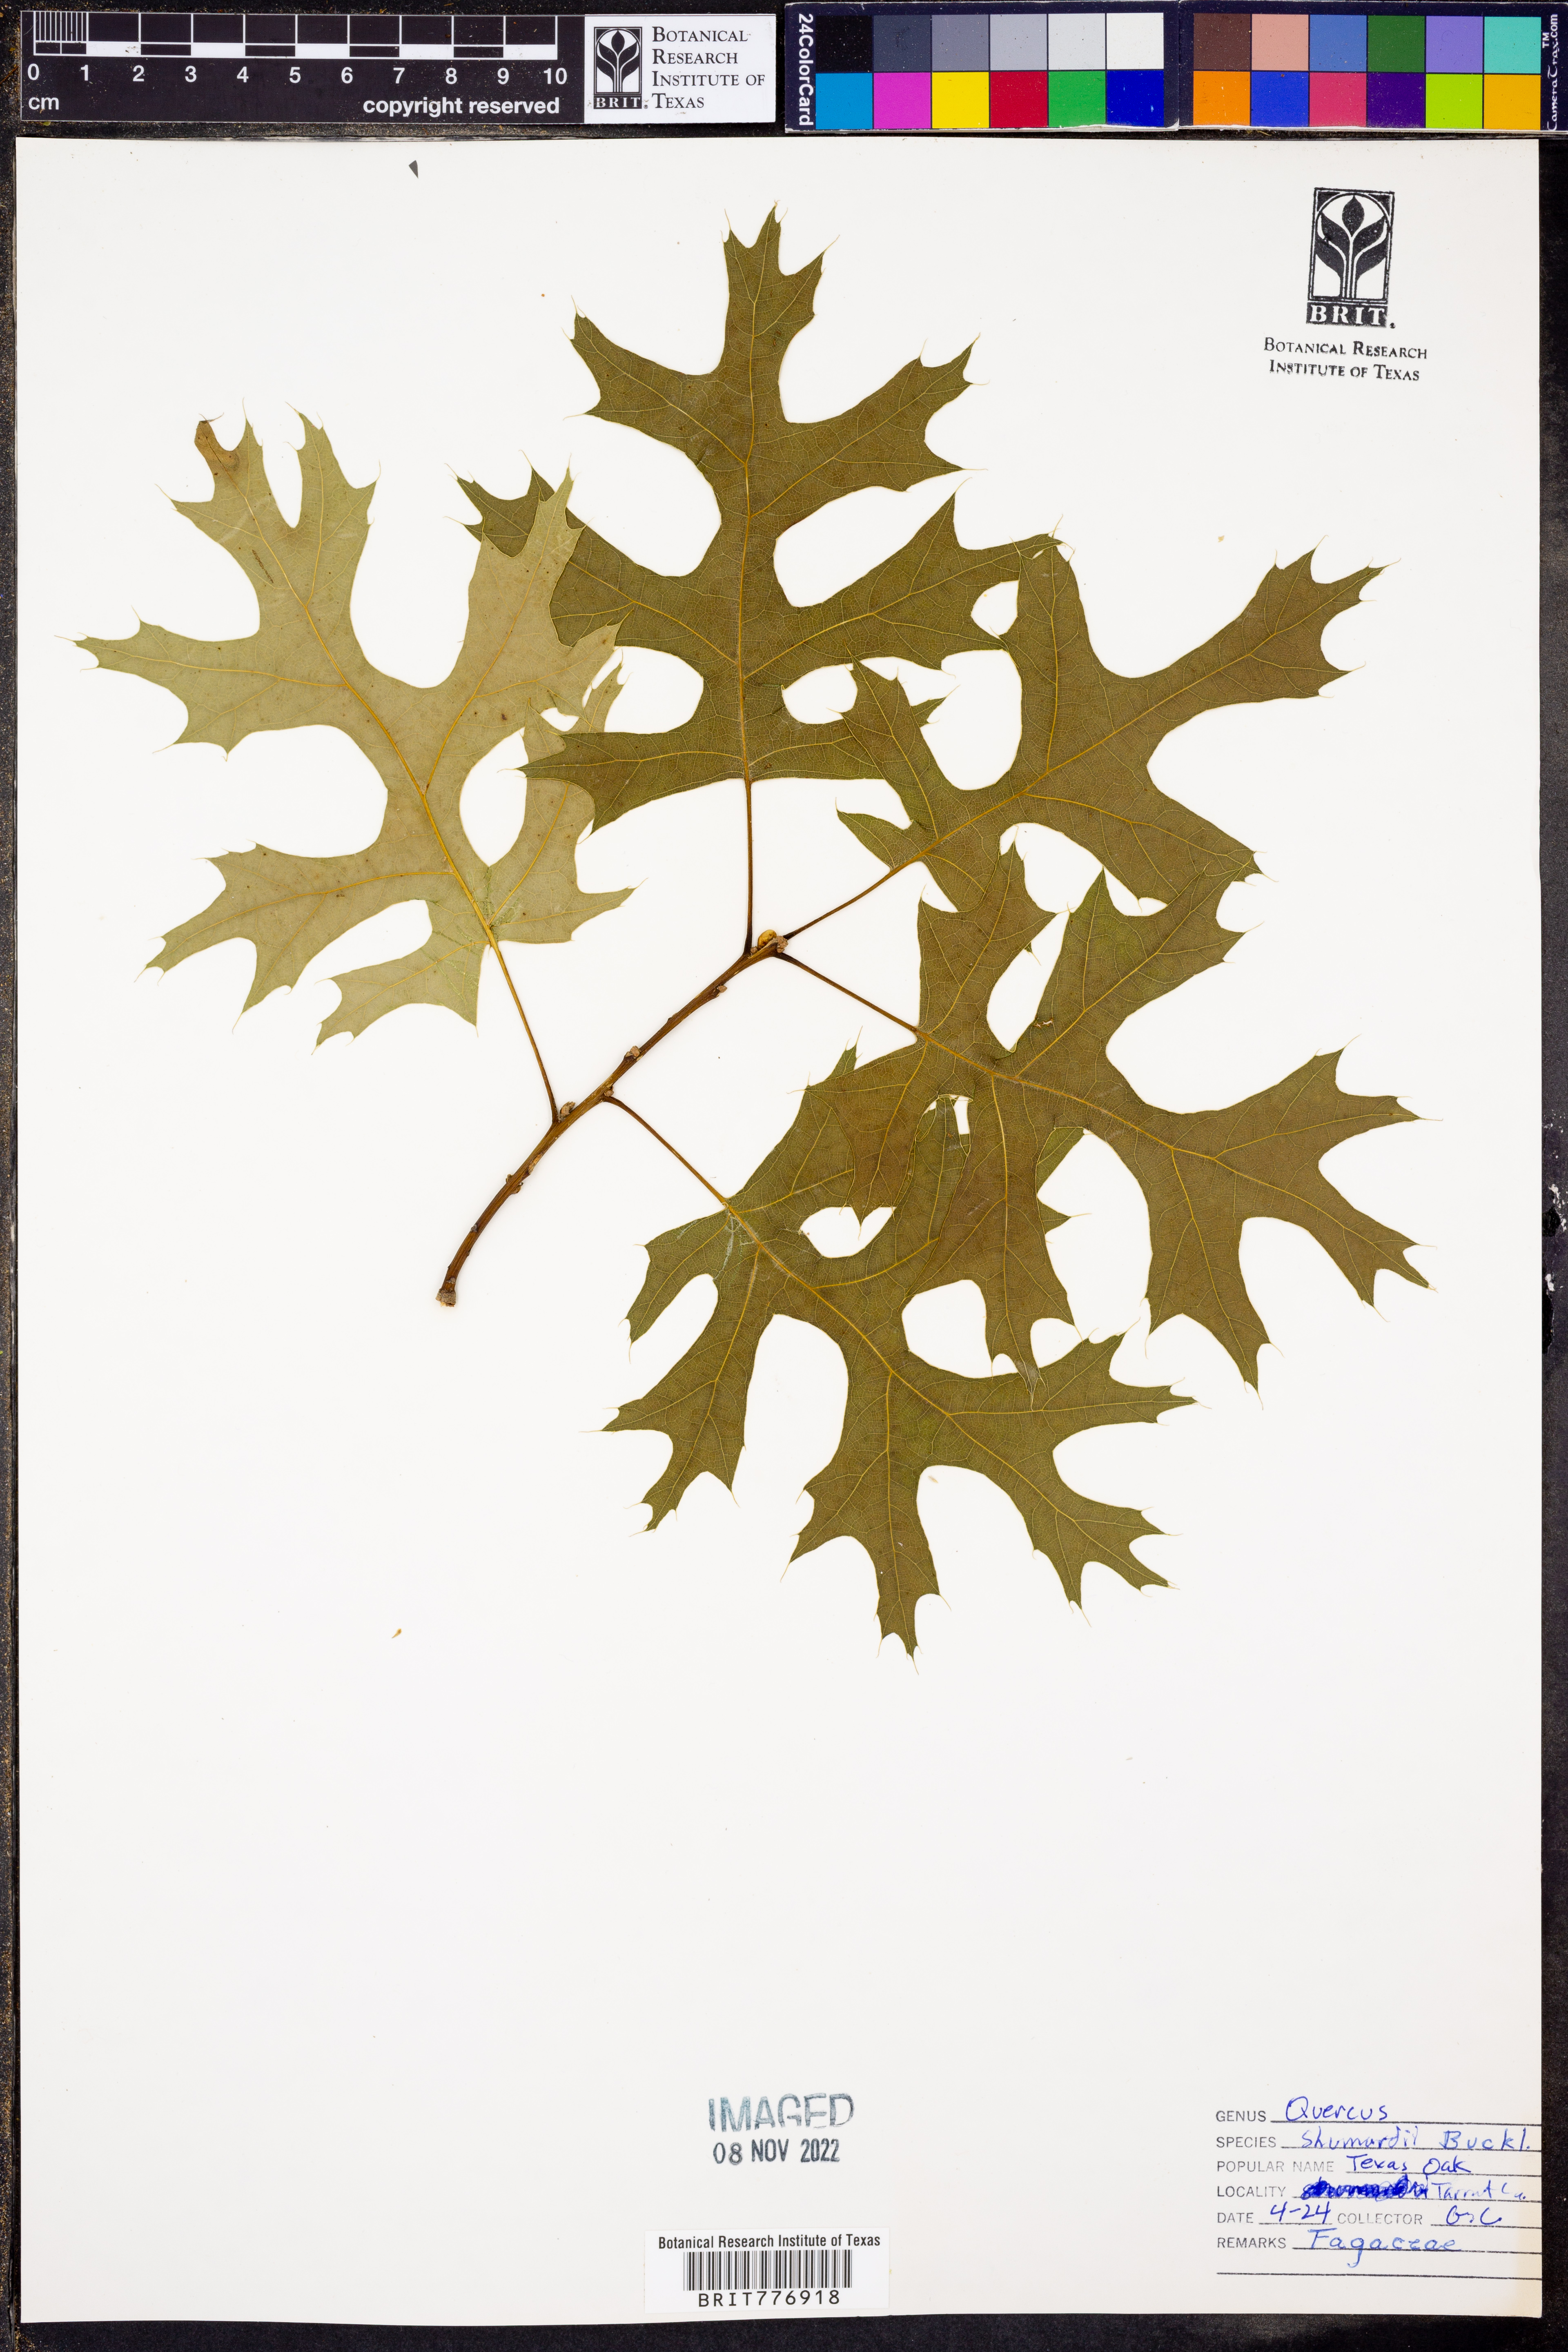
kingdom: Plantae
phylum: Tracheophyta
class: Magnoliopsida
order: Fagales
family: Fagaceae
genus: Quercus
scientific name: Quercus shumardii
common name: Shumard oak
